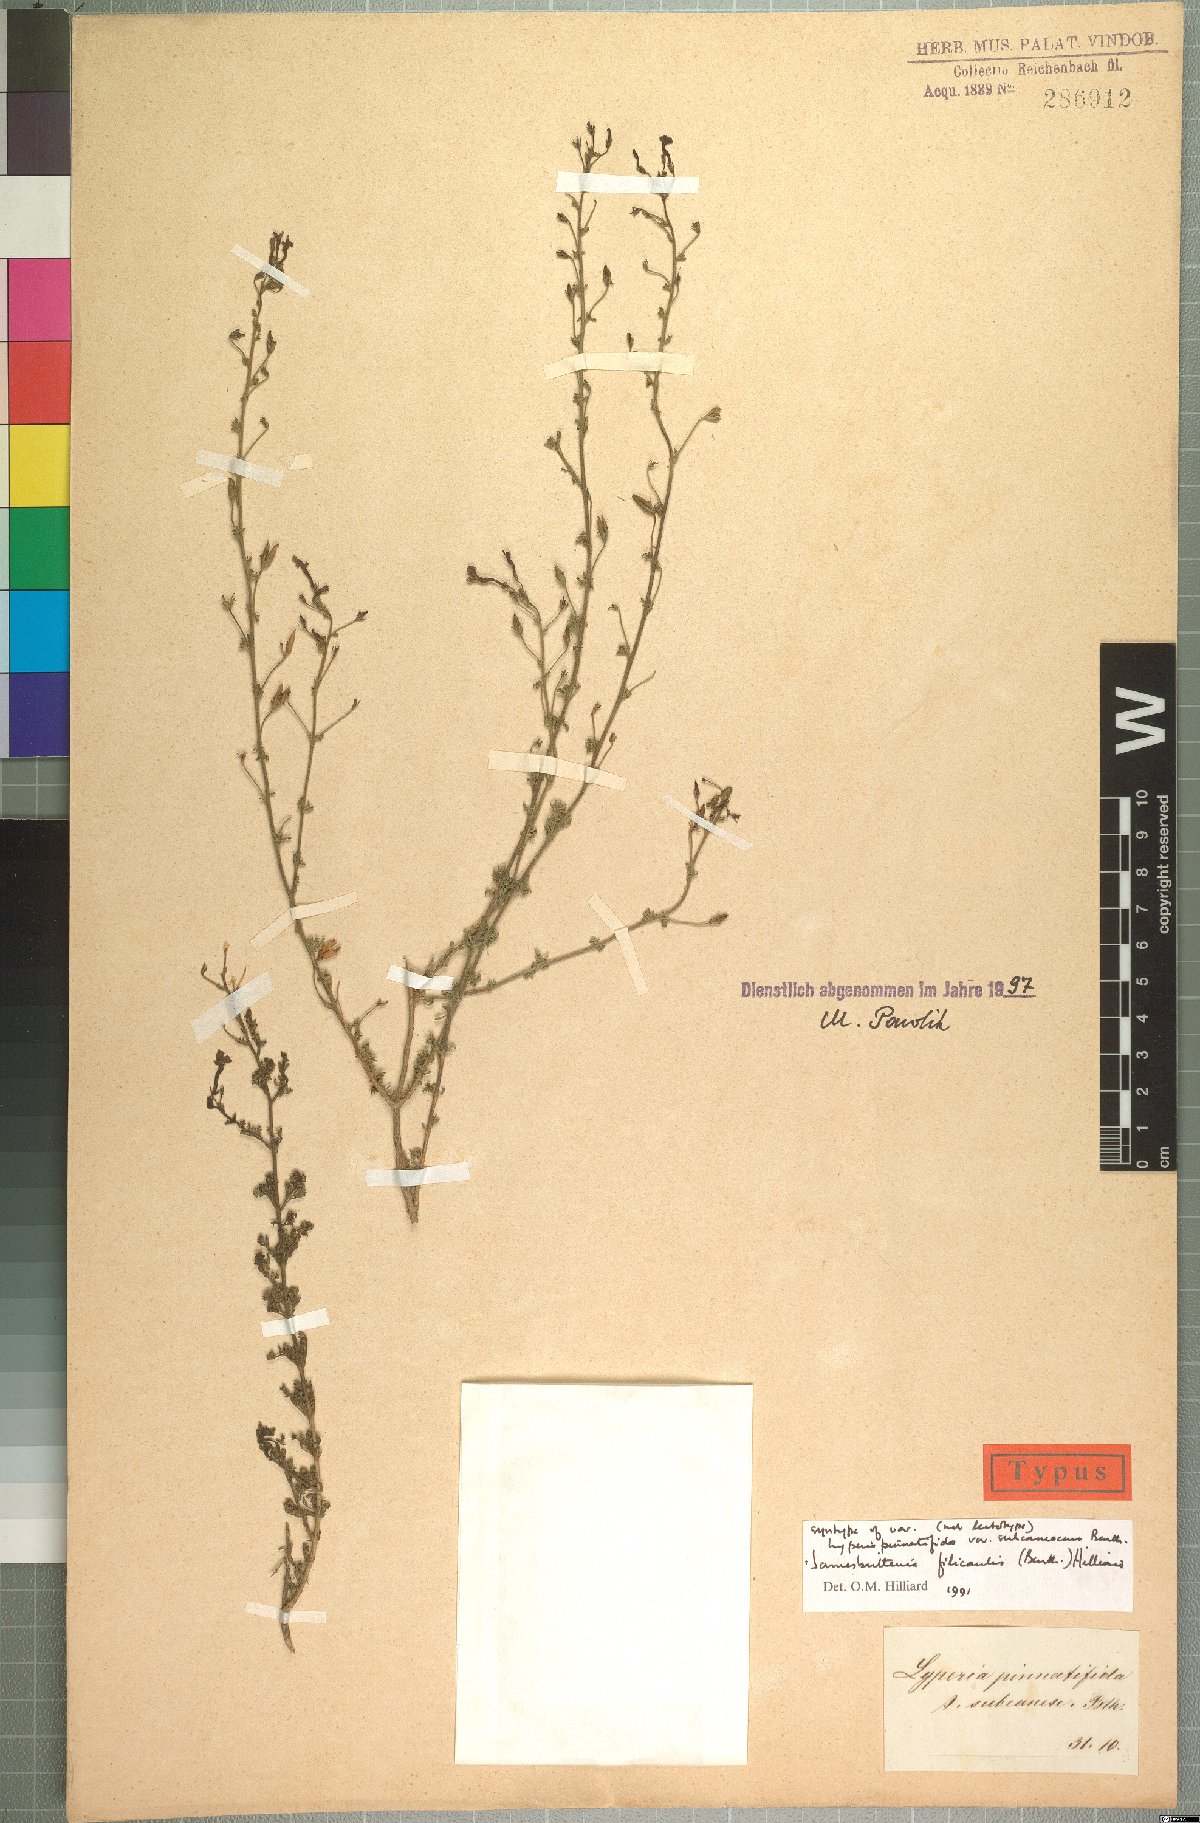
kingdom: Plantae
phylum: Tracheophyta
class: Magnoliopsida
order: Lamiales
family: Scrophulariaceae
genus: Jamesbrittenia
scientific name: Jamesbrittenia filicaulis
